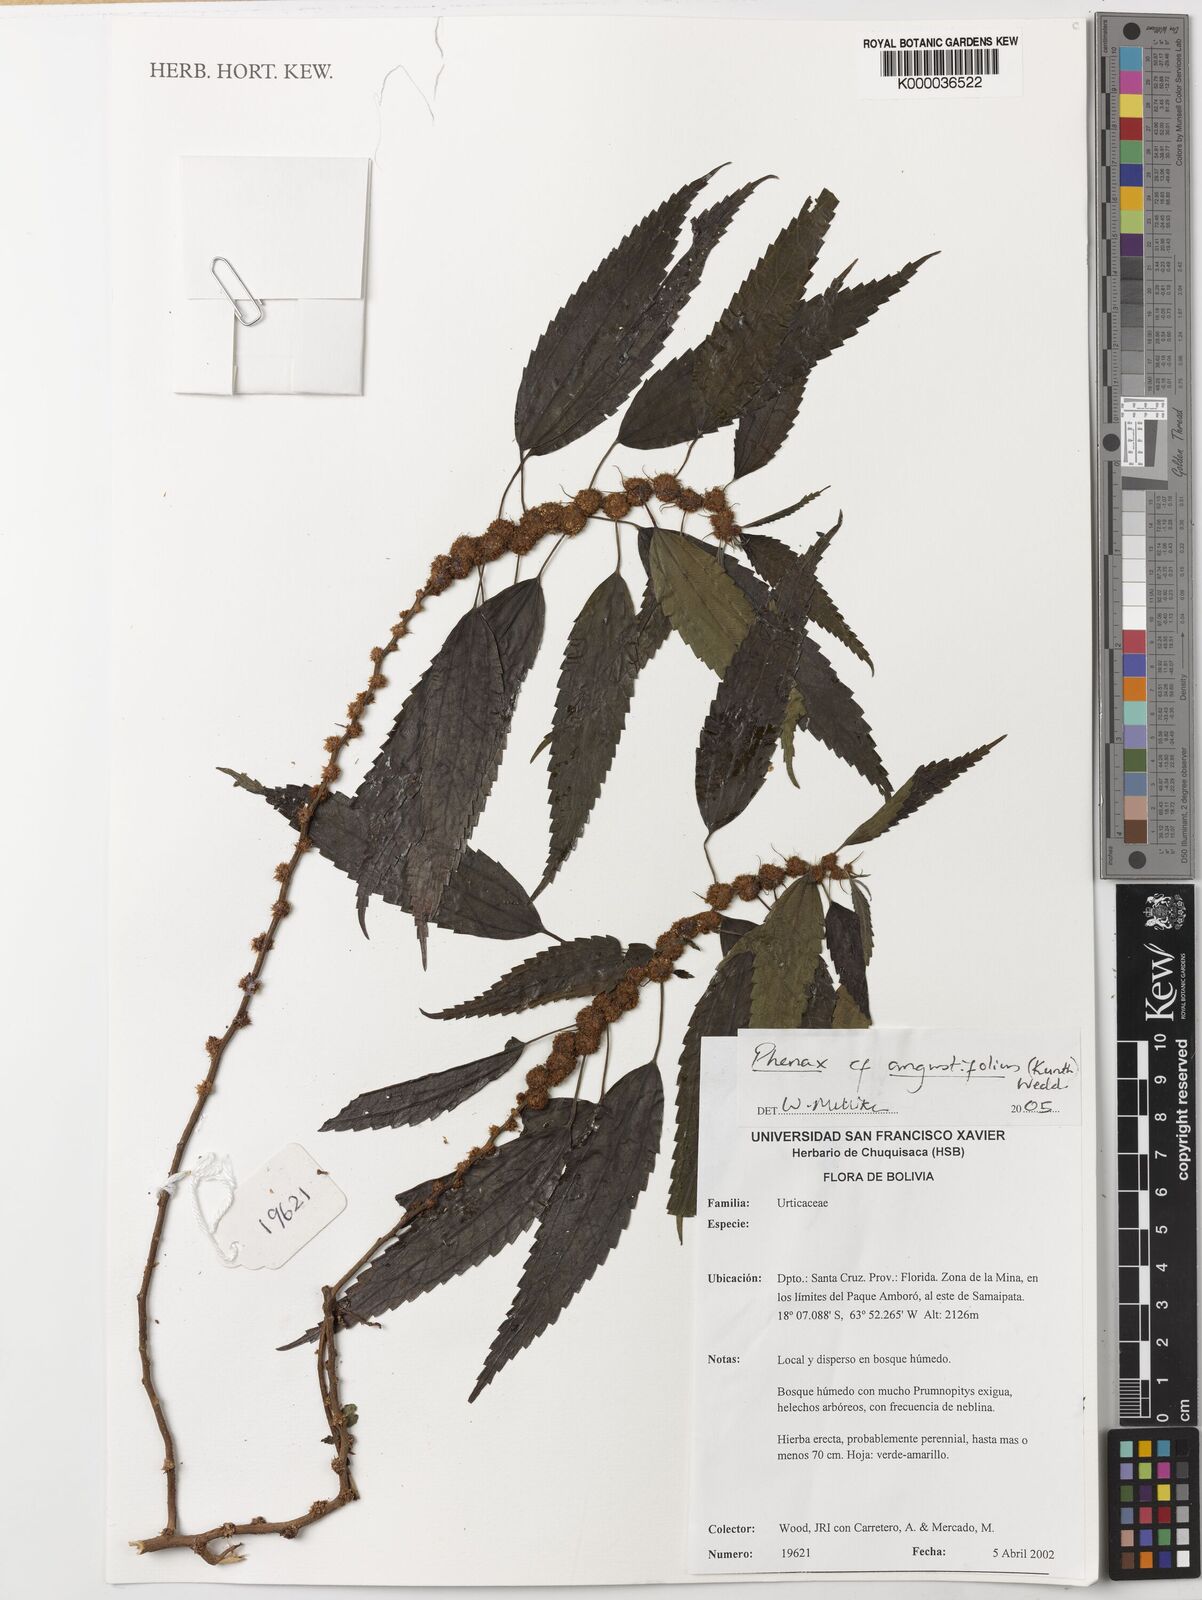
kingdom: Plantae
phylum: Tracheophyta
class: Magnoliopsida
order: Rosales
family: Urticaceae
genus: Phenax
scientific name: Phenax angustifolius
